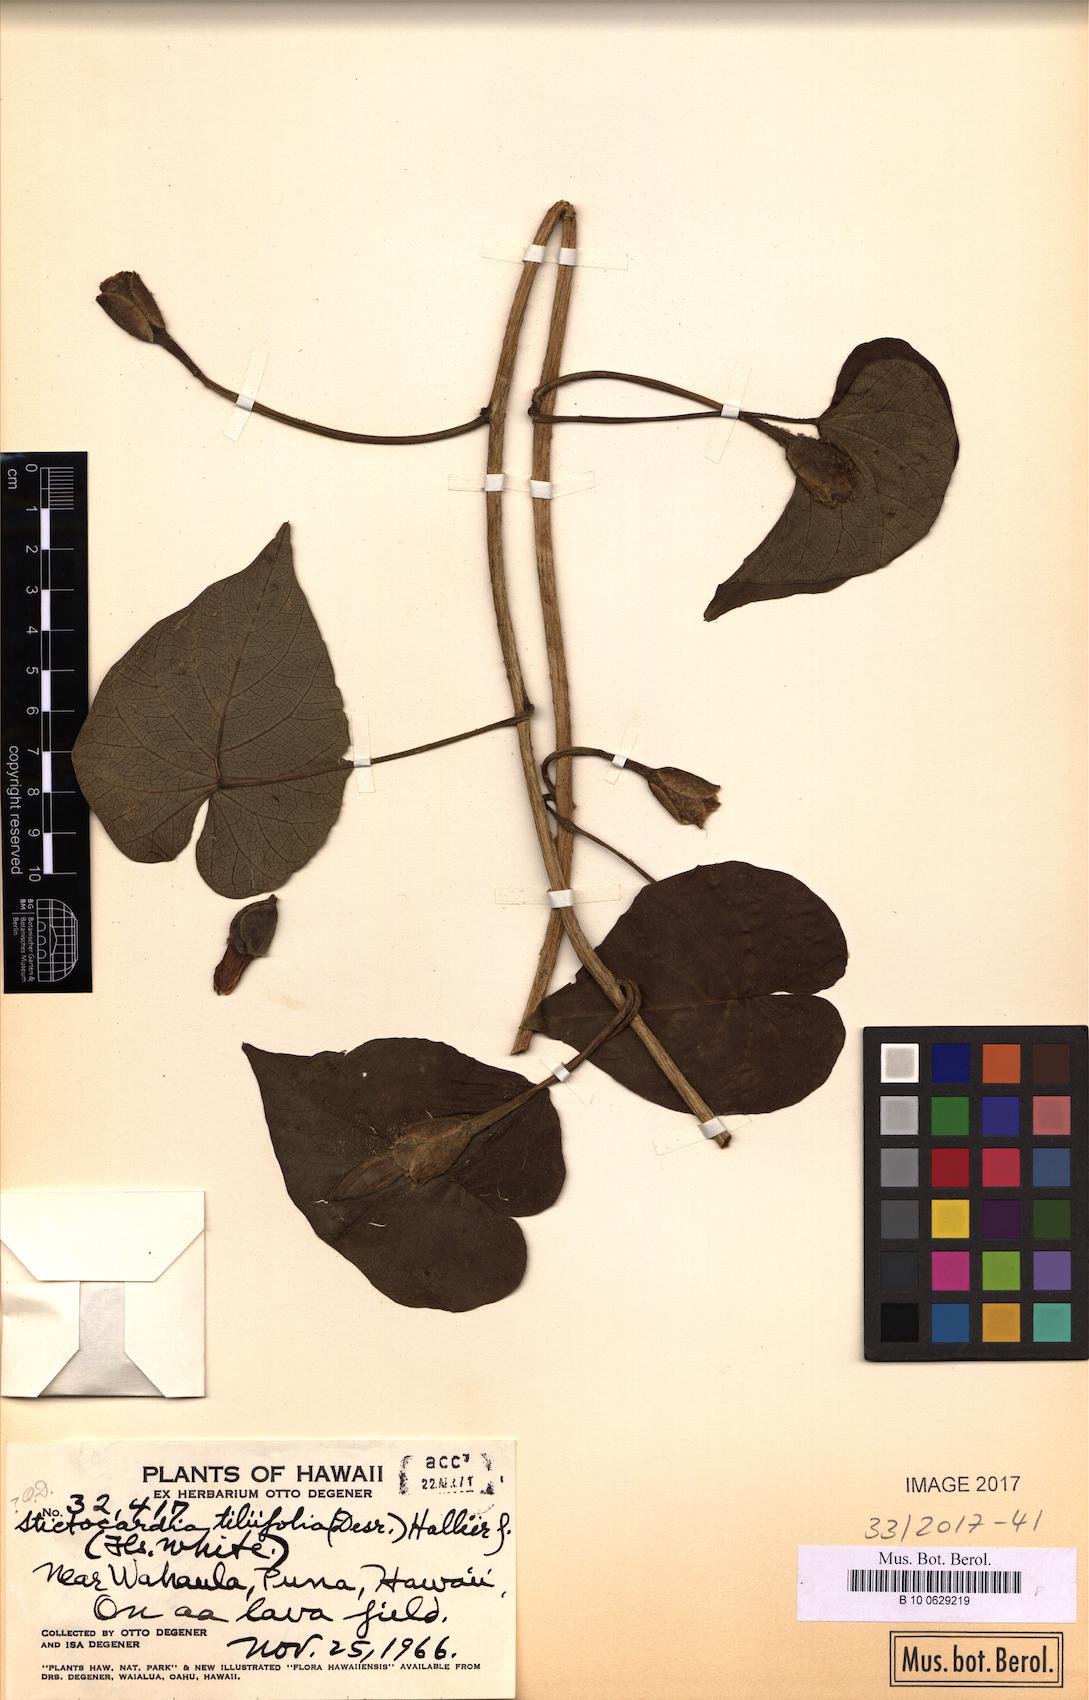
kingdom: Plantae
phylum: Tracheophyta
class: Magnoliopsida
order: Solanales
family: Convolvulaceae
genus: Stictocardia
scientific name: Stictocardia tiliifolia
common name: Spottedheart
